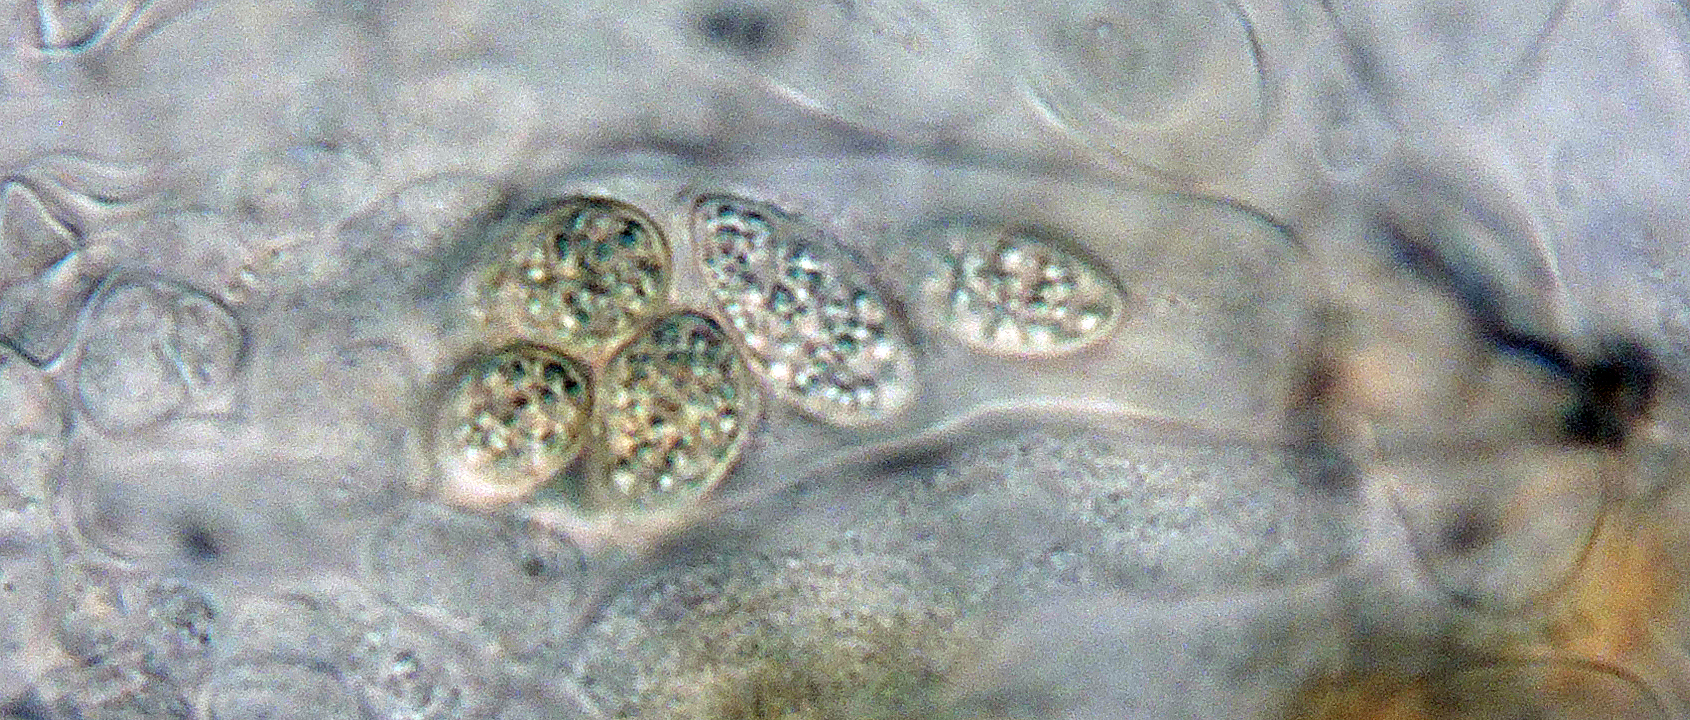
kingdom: Fungi
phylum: Ascomycota
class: Eurotiomycetes
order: Chaetothyriales
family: Herpotrichiellaceae
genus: Capronia
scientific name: Capronia
